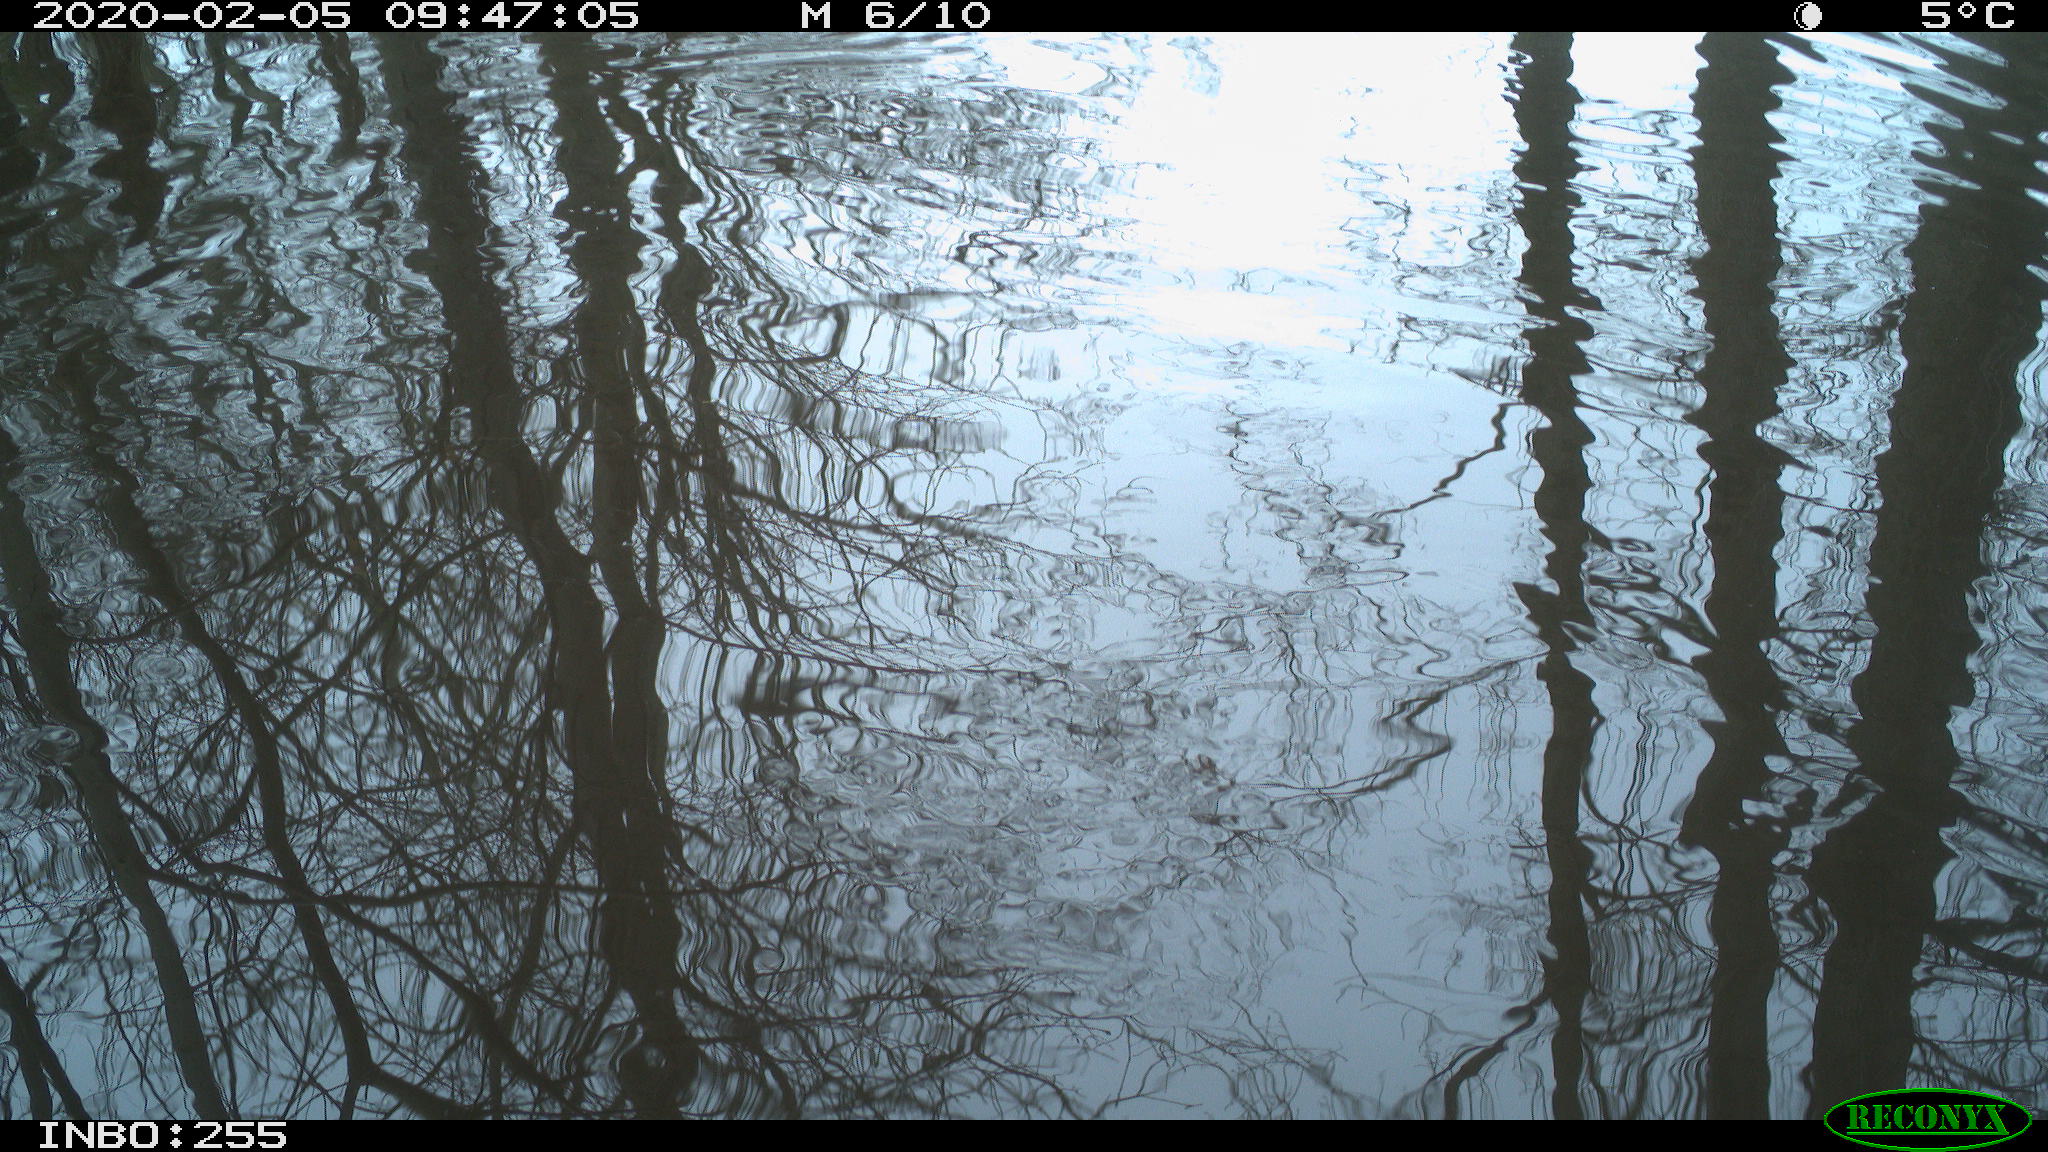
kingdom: Animalia
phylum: Chordata
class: Aves
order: Gruiformes
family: Rallidae
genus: Fulica
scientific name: Fulica atra
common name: Eurasian coot
